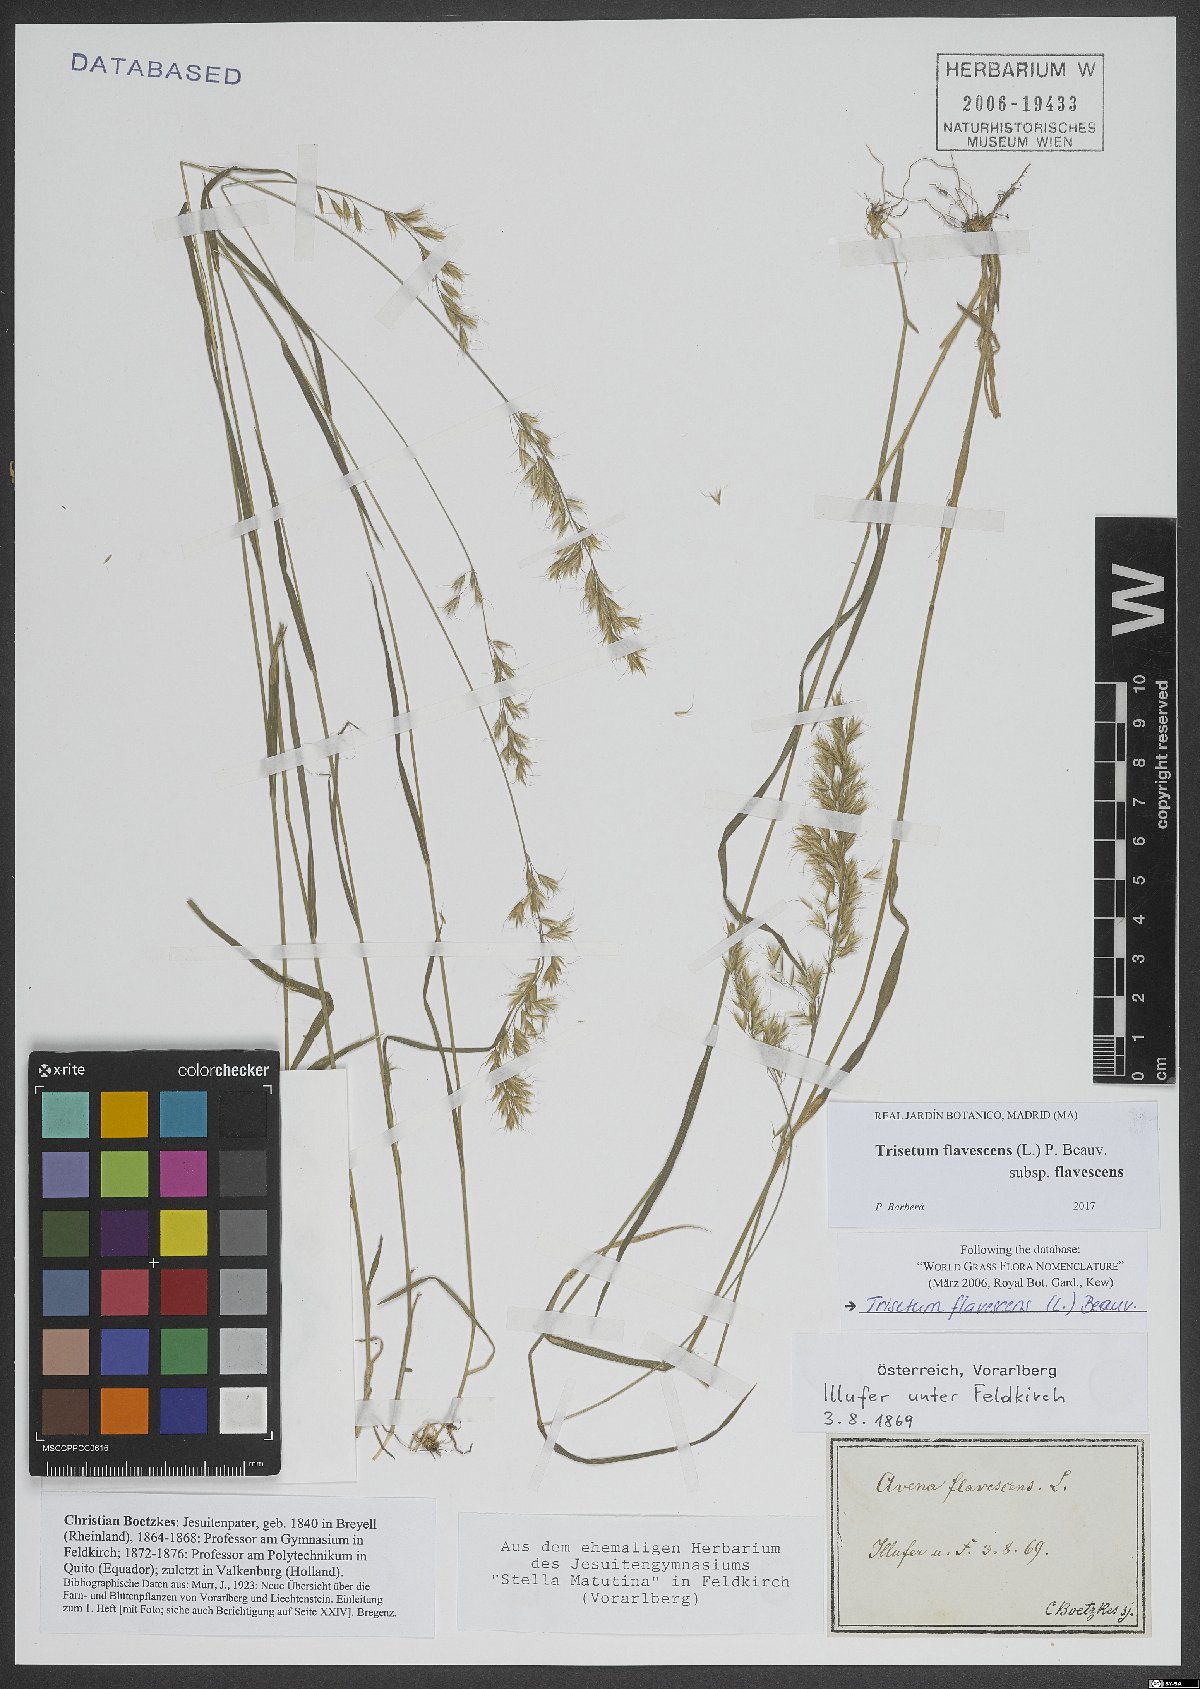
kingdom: Plantae
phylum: Tracheophyta
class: Liliopsida
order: Poales
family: Poaceae
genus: Trisetum
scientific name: Trisetum flavescens
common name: Yellow oat-grass
